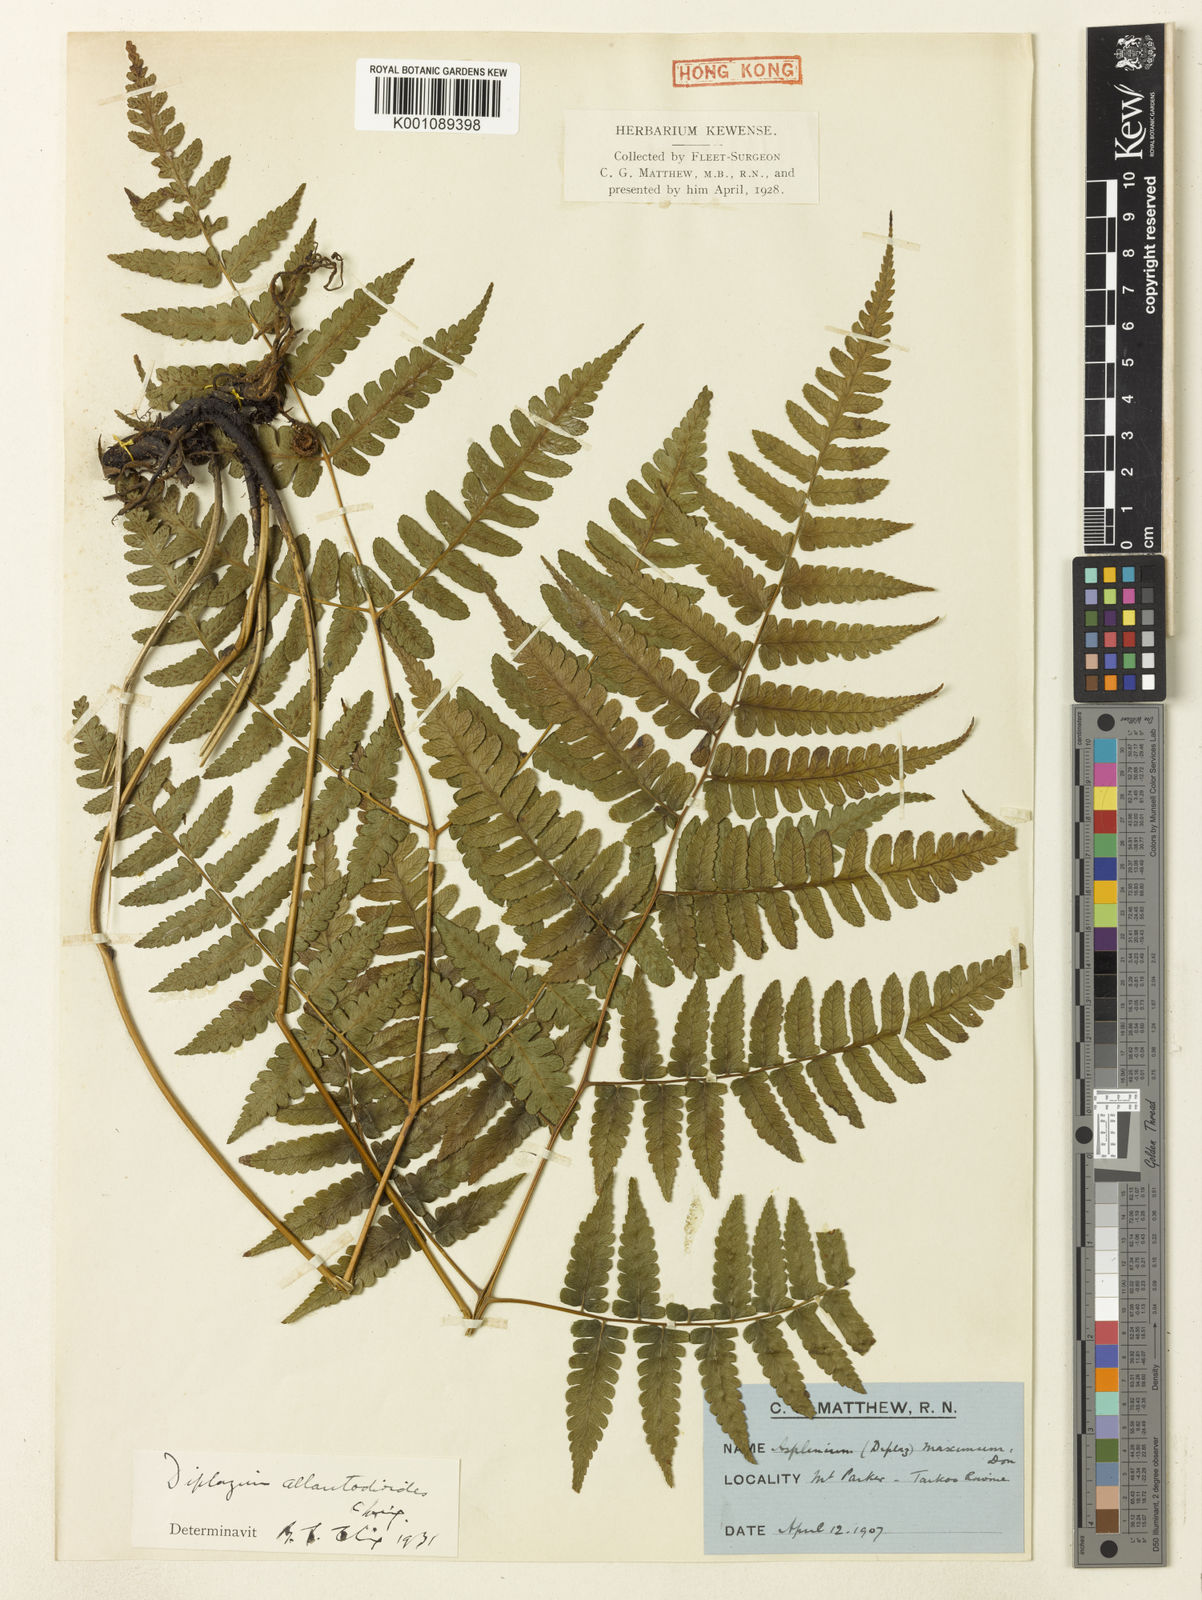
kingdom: Plantae
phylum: Tracheophyta
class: Polypodiopsida
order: Polypodiales
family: Athyriaceae
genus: Diplazium
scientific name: Diplazium virescens
